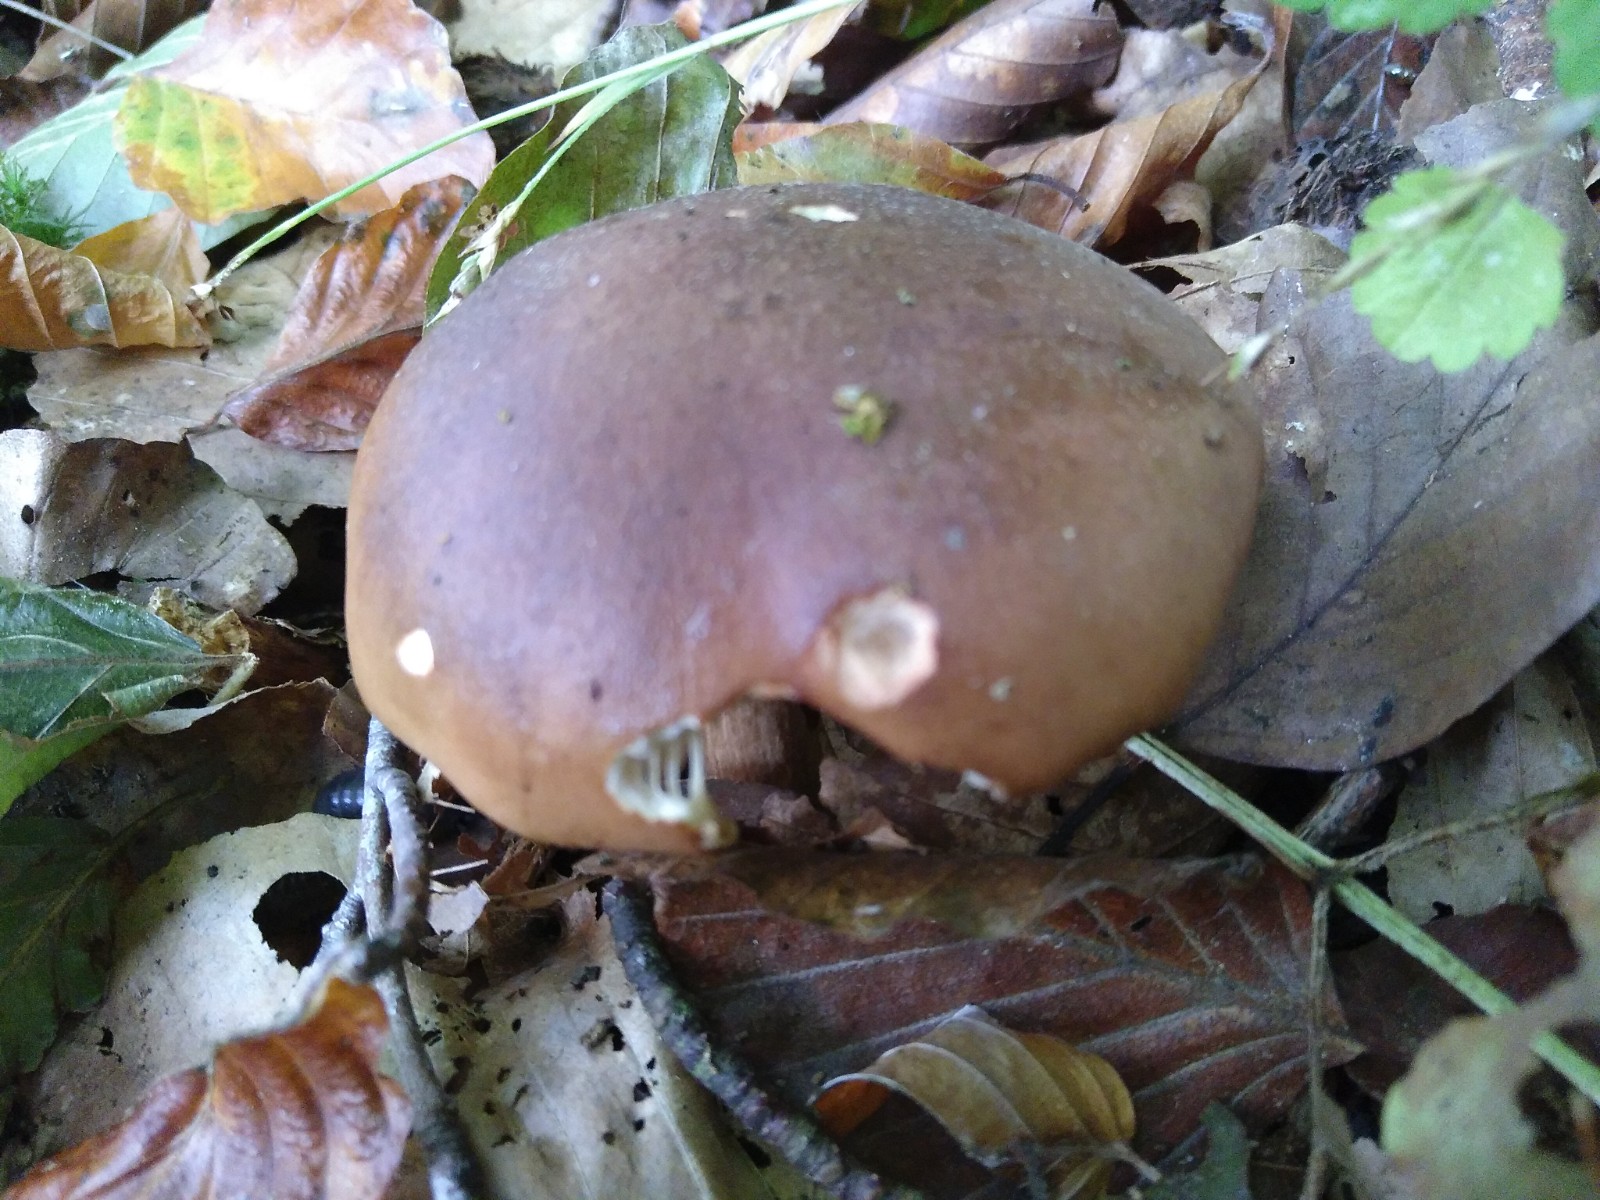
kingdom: Fungi
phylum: Basidiomycota
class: Agaricomycetes
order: Agaricales
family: Tricholomataceae
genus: Tricholoma
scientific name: Tricholoma ustale
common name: sveden ridderhat
